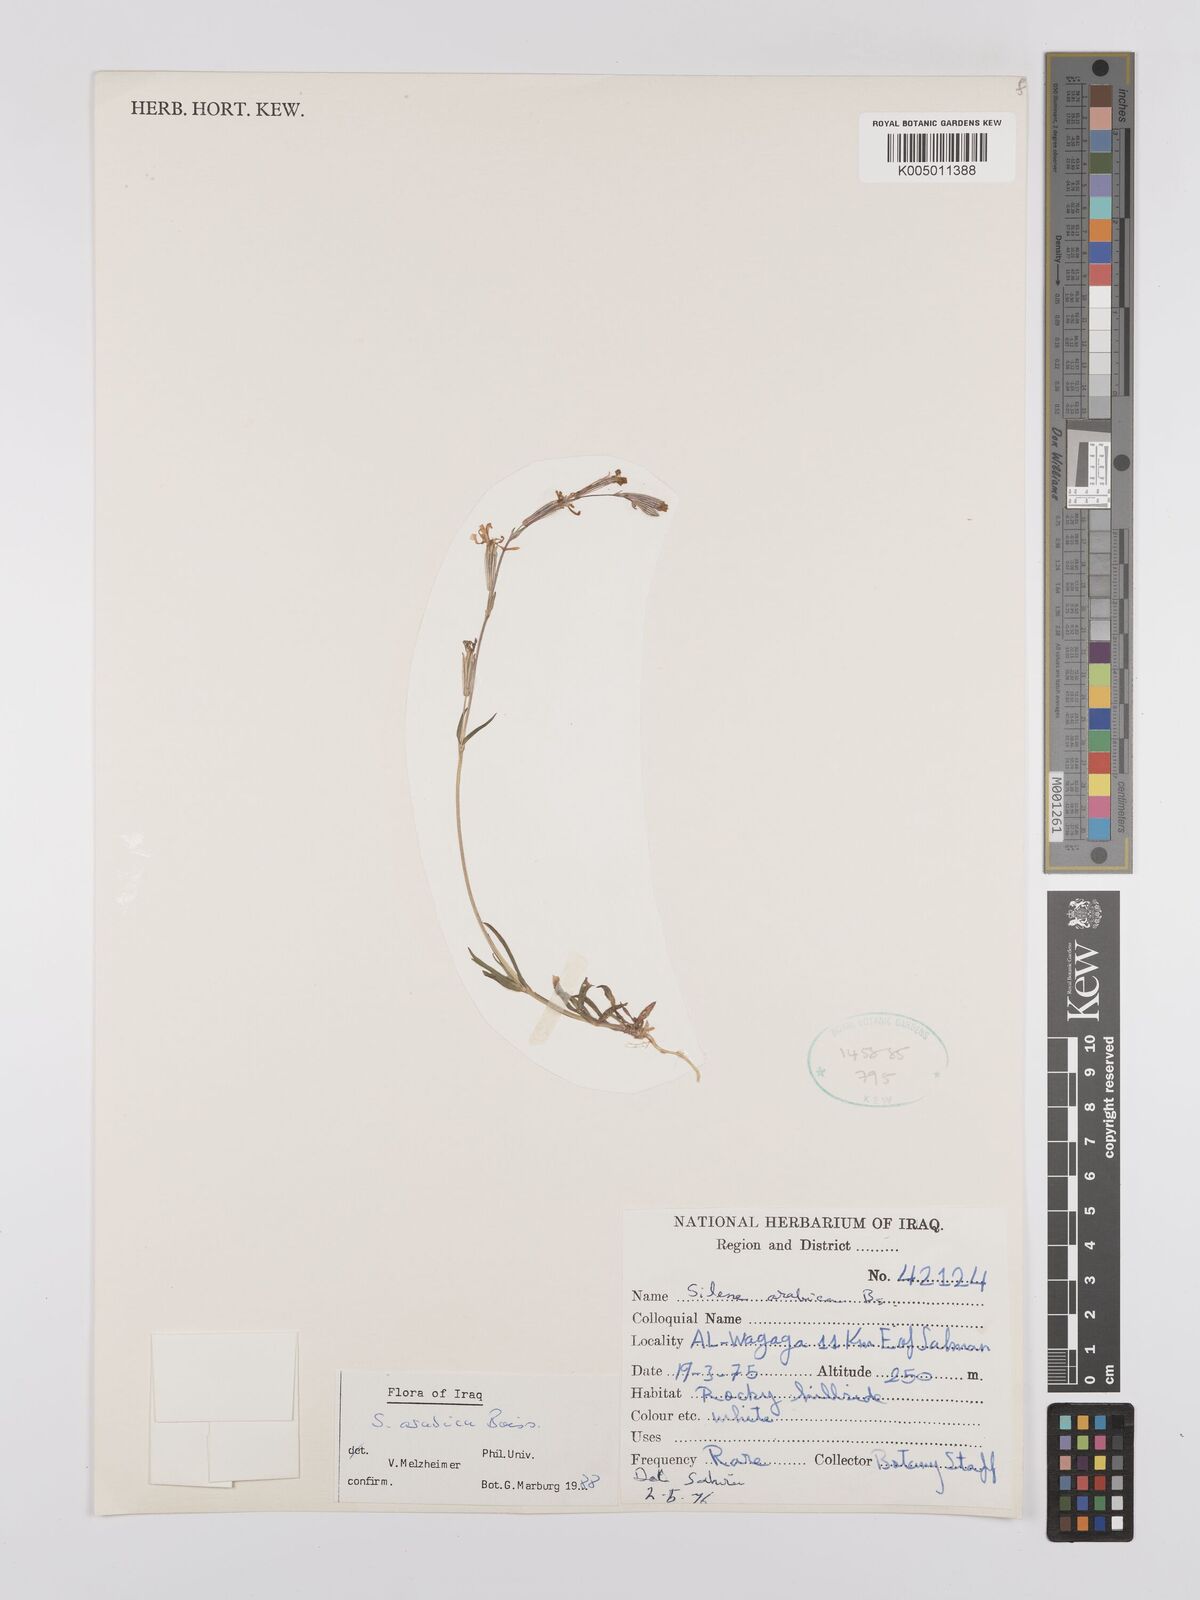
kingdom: Plantae
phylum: Tracheophyta
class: Magnoliopsida
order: Caryophyllales
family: Caryophyllaceae
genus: Silene
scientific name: Silene arabica
